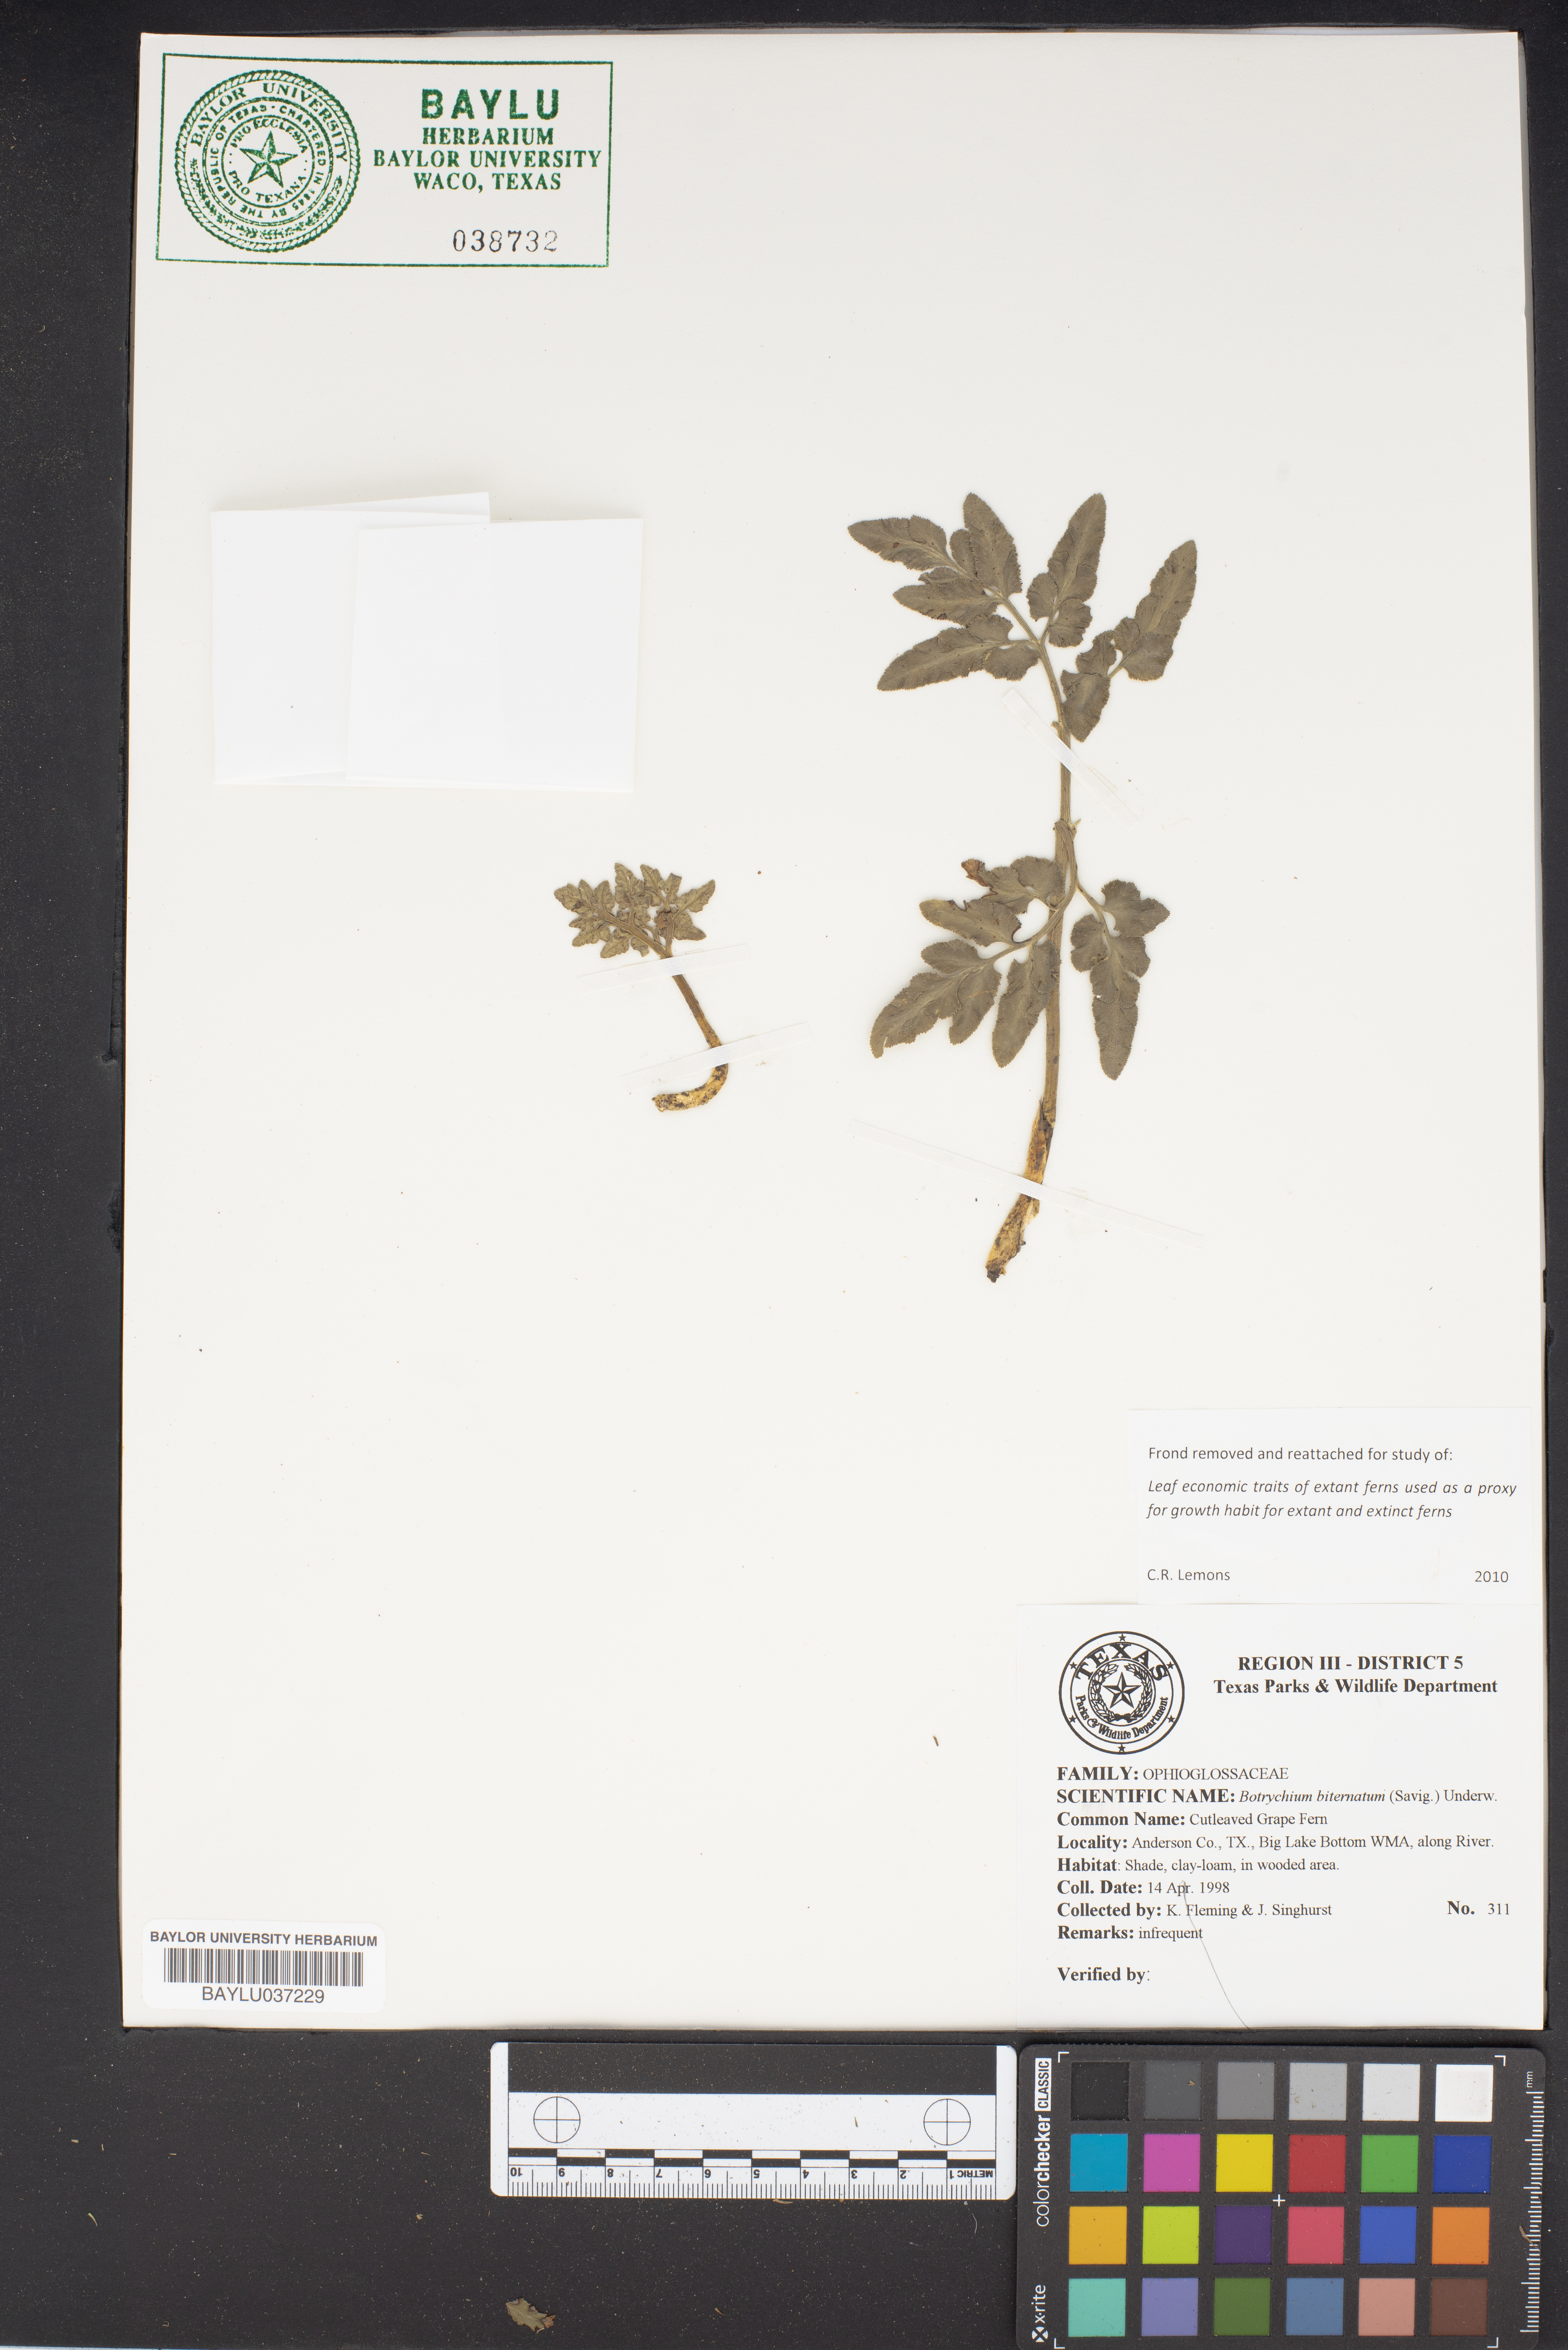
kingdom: Plantae
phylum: Tracheophyta
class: Polypodiopsida
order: Ophioglossales
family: Ophioglossaceae
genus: Sceptridium
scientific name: Sceptridium biternatum
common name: Sparse-lobed grapefern
